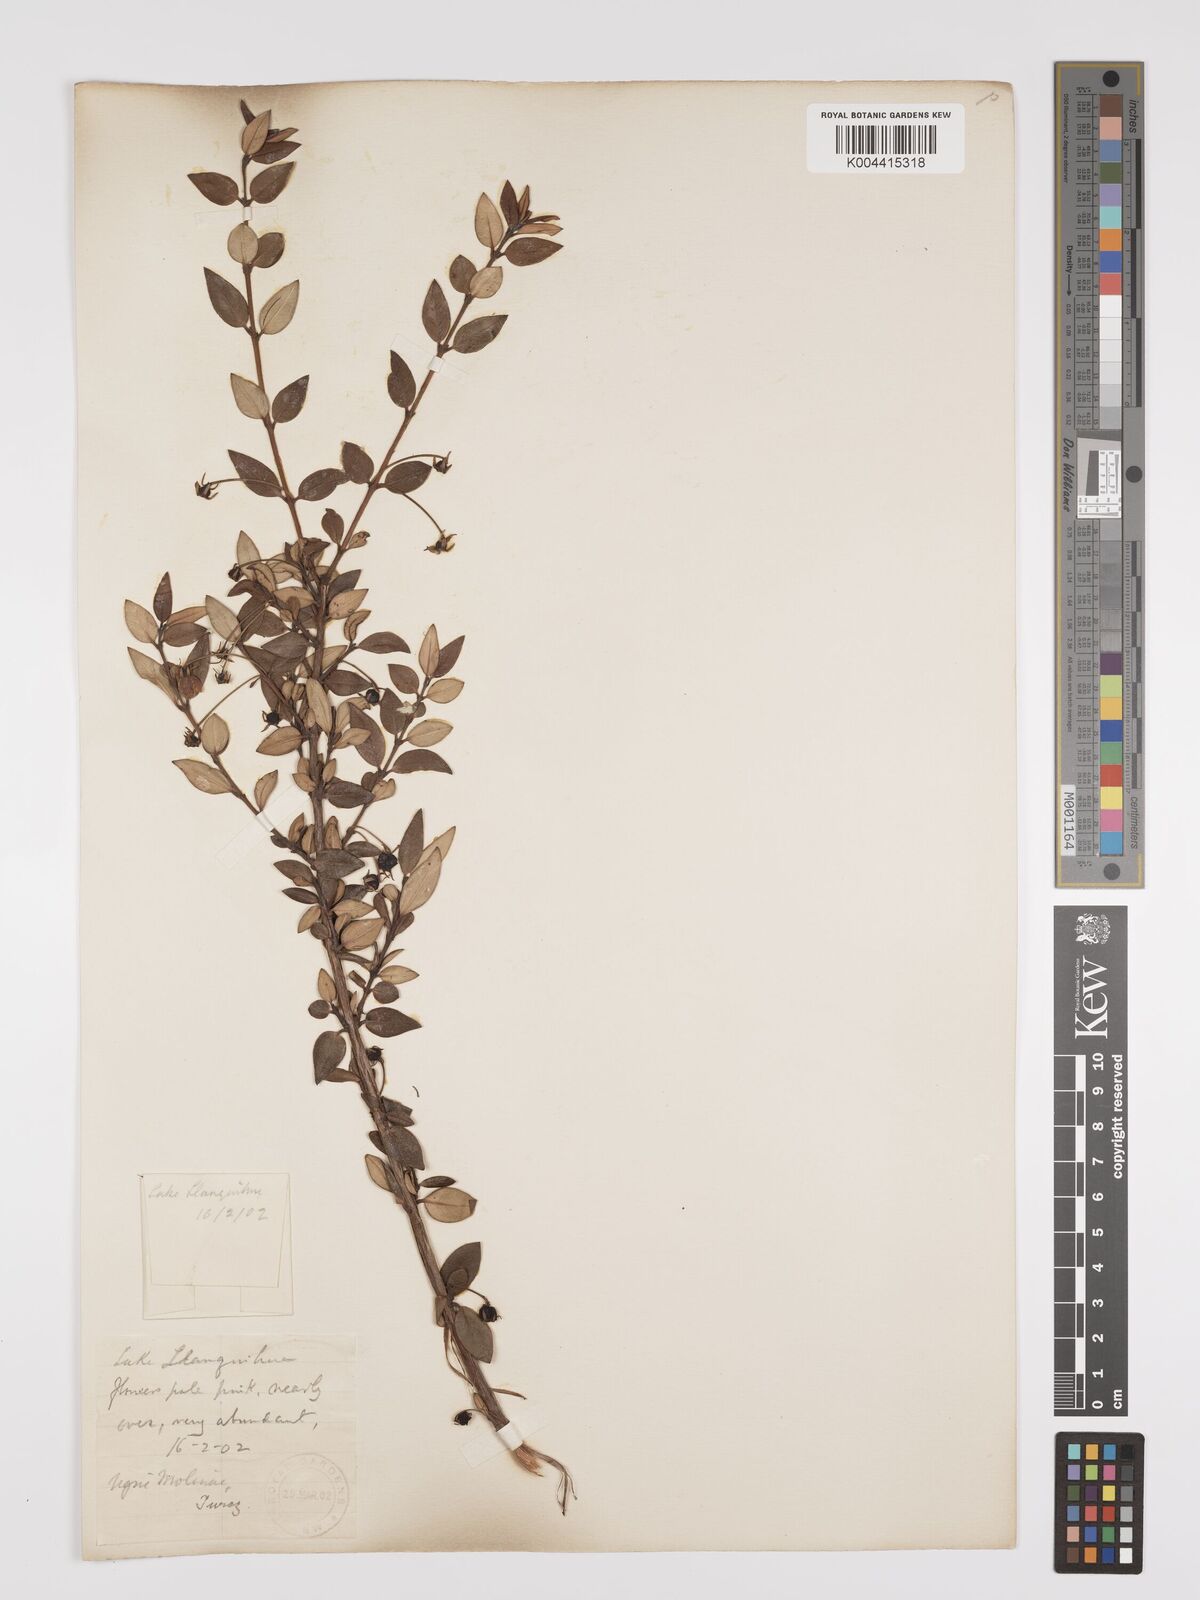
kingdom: Plantae
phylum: Tracheophyta
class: Magnoliopsida
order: Myrtales
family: Myrtaceae
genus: Ugni
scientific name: Ugni molinae
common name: Chilean-guava
